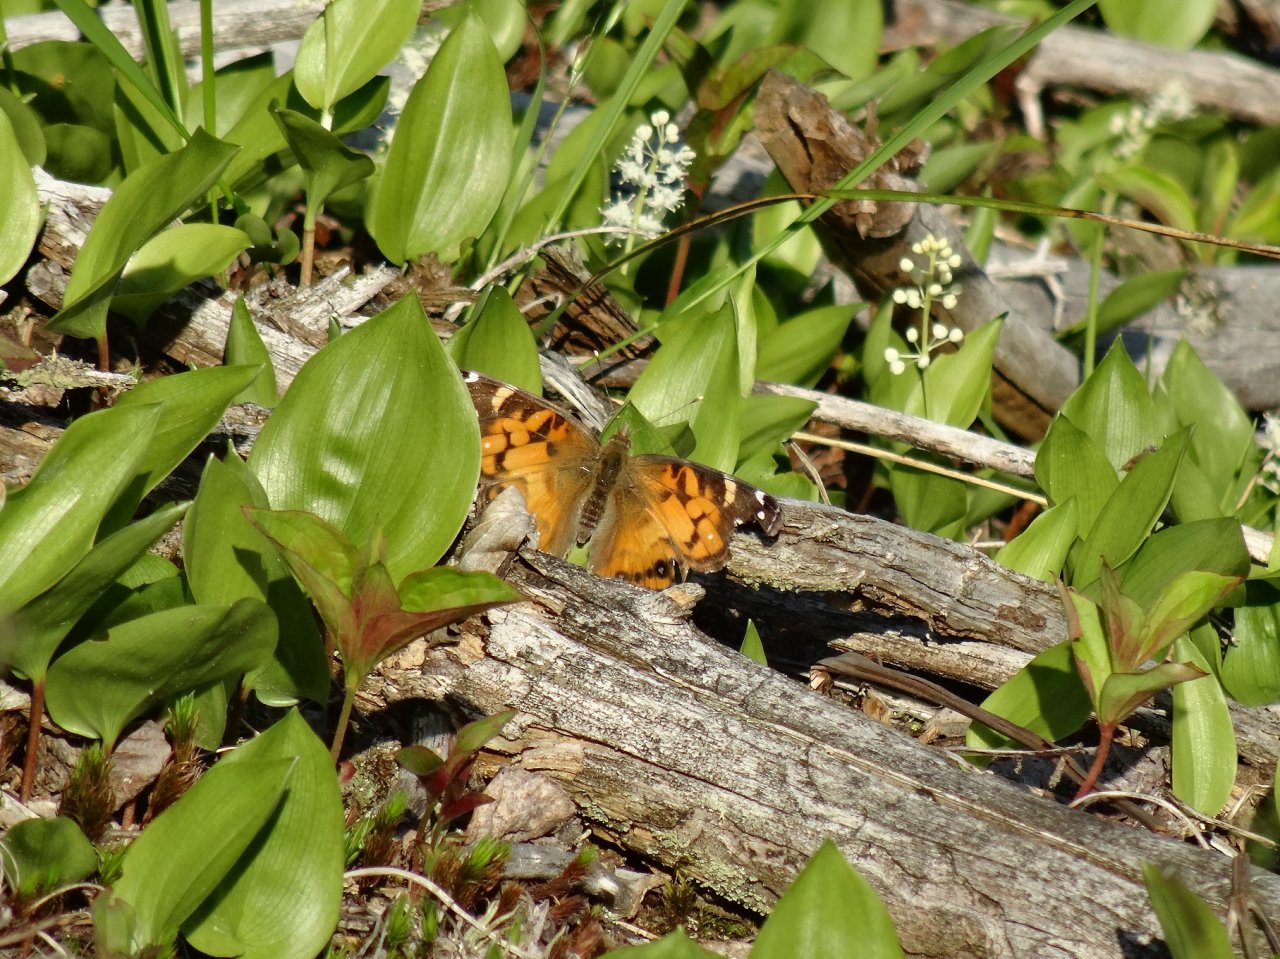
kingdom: Animalia
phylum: Arthropoda
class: Insecta
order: Lepidoptera
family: Nymphalidae
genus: Vanessa
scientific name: Vanessa virginiensis
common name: American Lady
